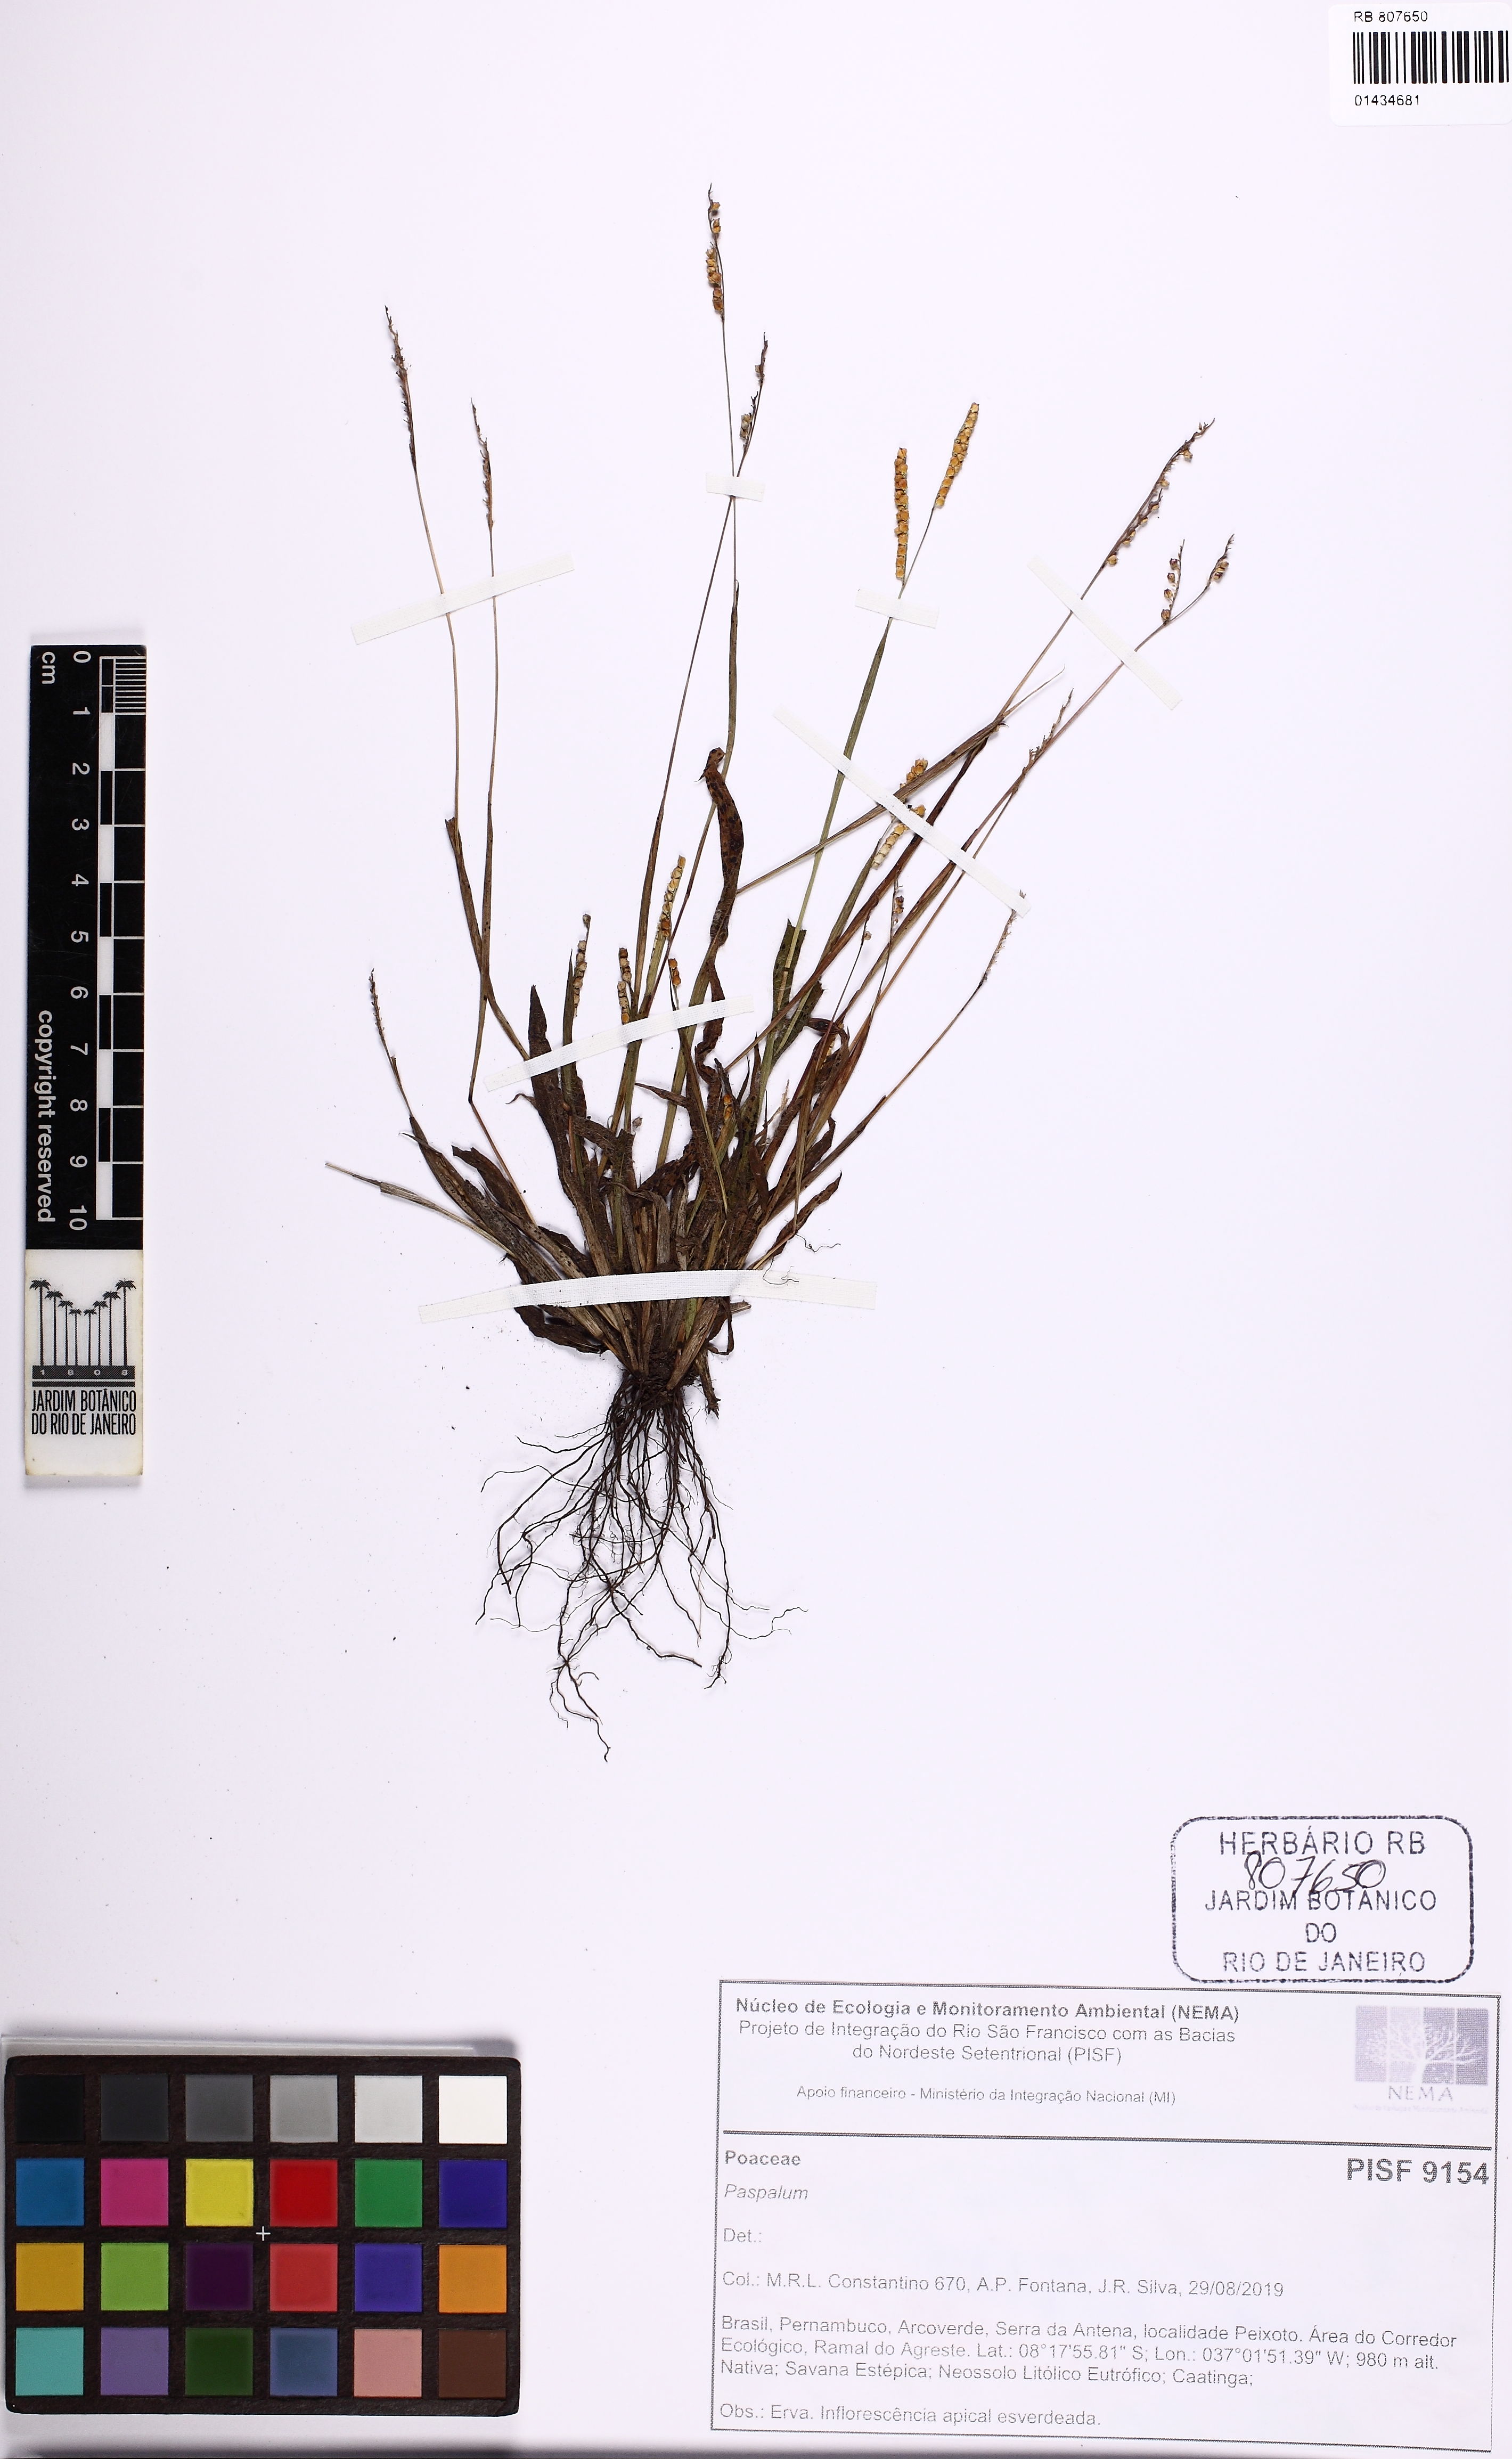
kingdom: Plantae
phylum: Tracheophyta
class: Liliopsida
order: Poales
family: Poaceae
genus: Paspalum
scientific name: Paspalum
